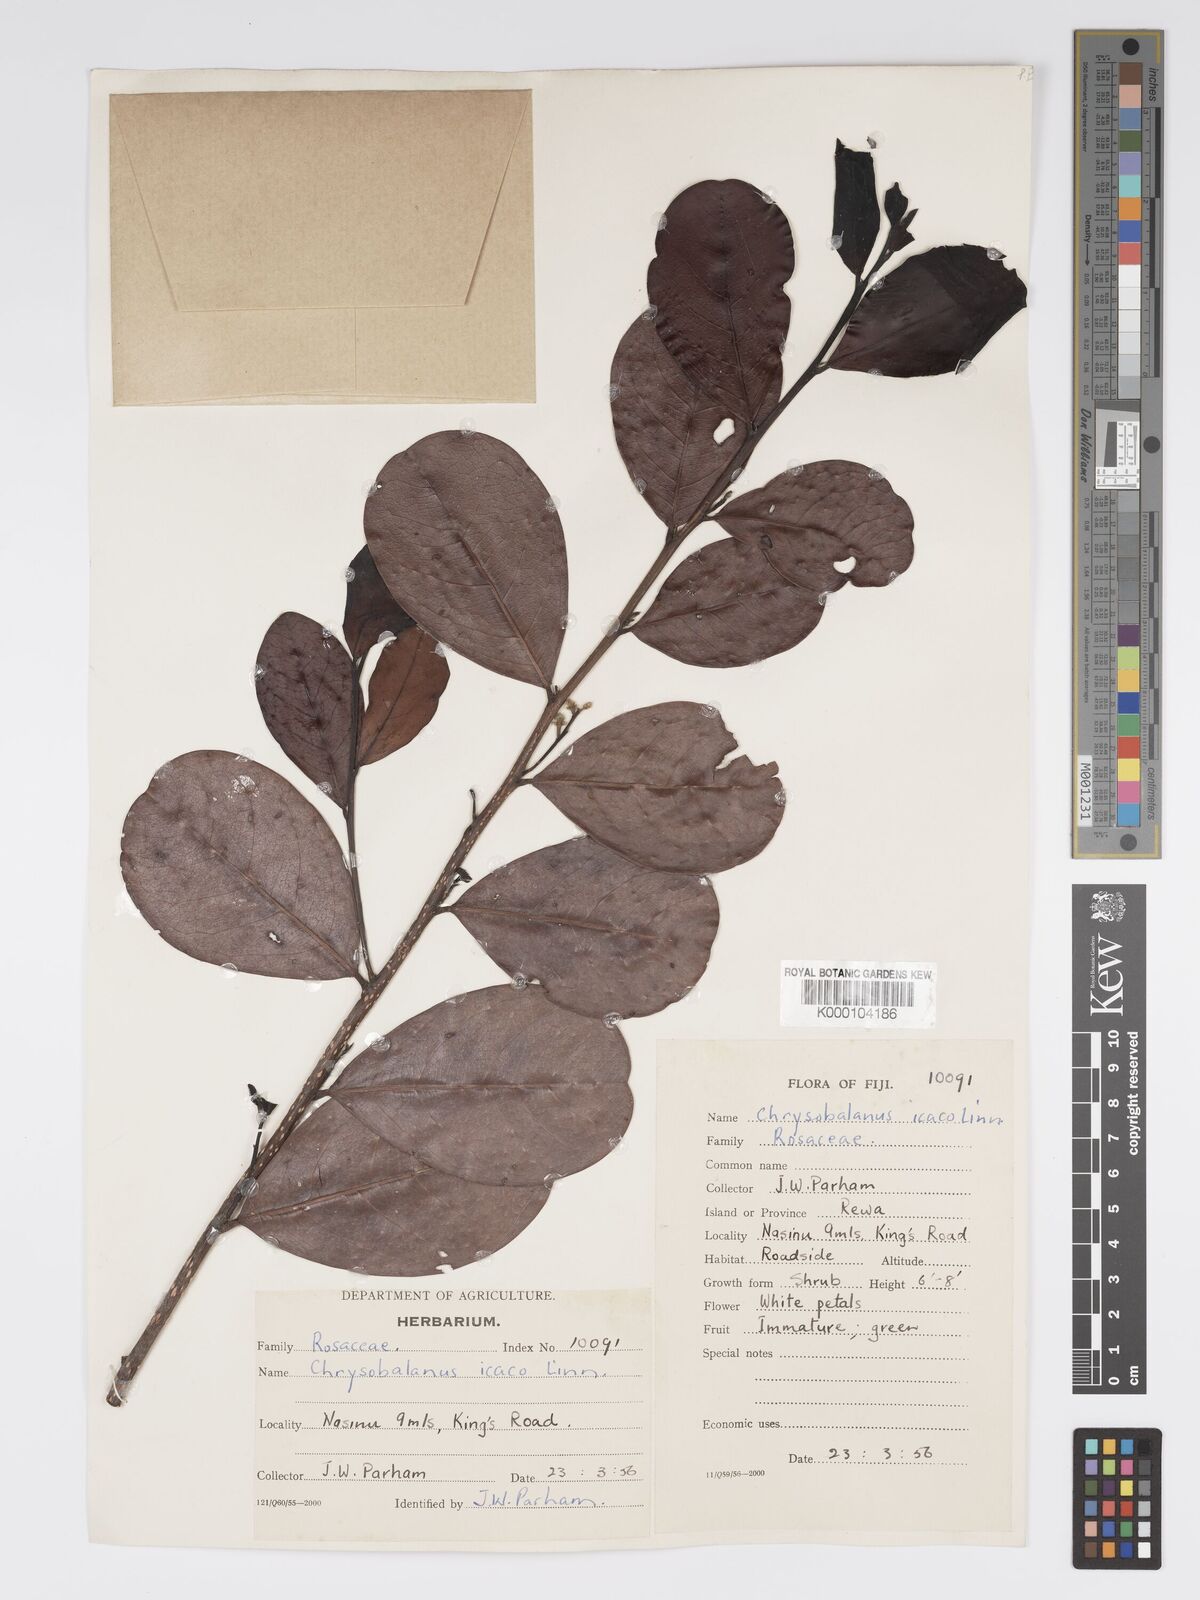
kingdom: Plantae
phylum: Tracheophyta
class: Magnoliopsida
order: Malpighiales
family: Chrysobalanaceae
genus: Chrysobalanus
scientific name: Chrysobalanus icaco
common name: Coco plum
